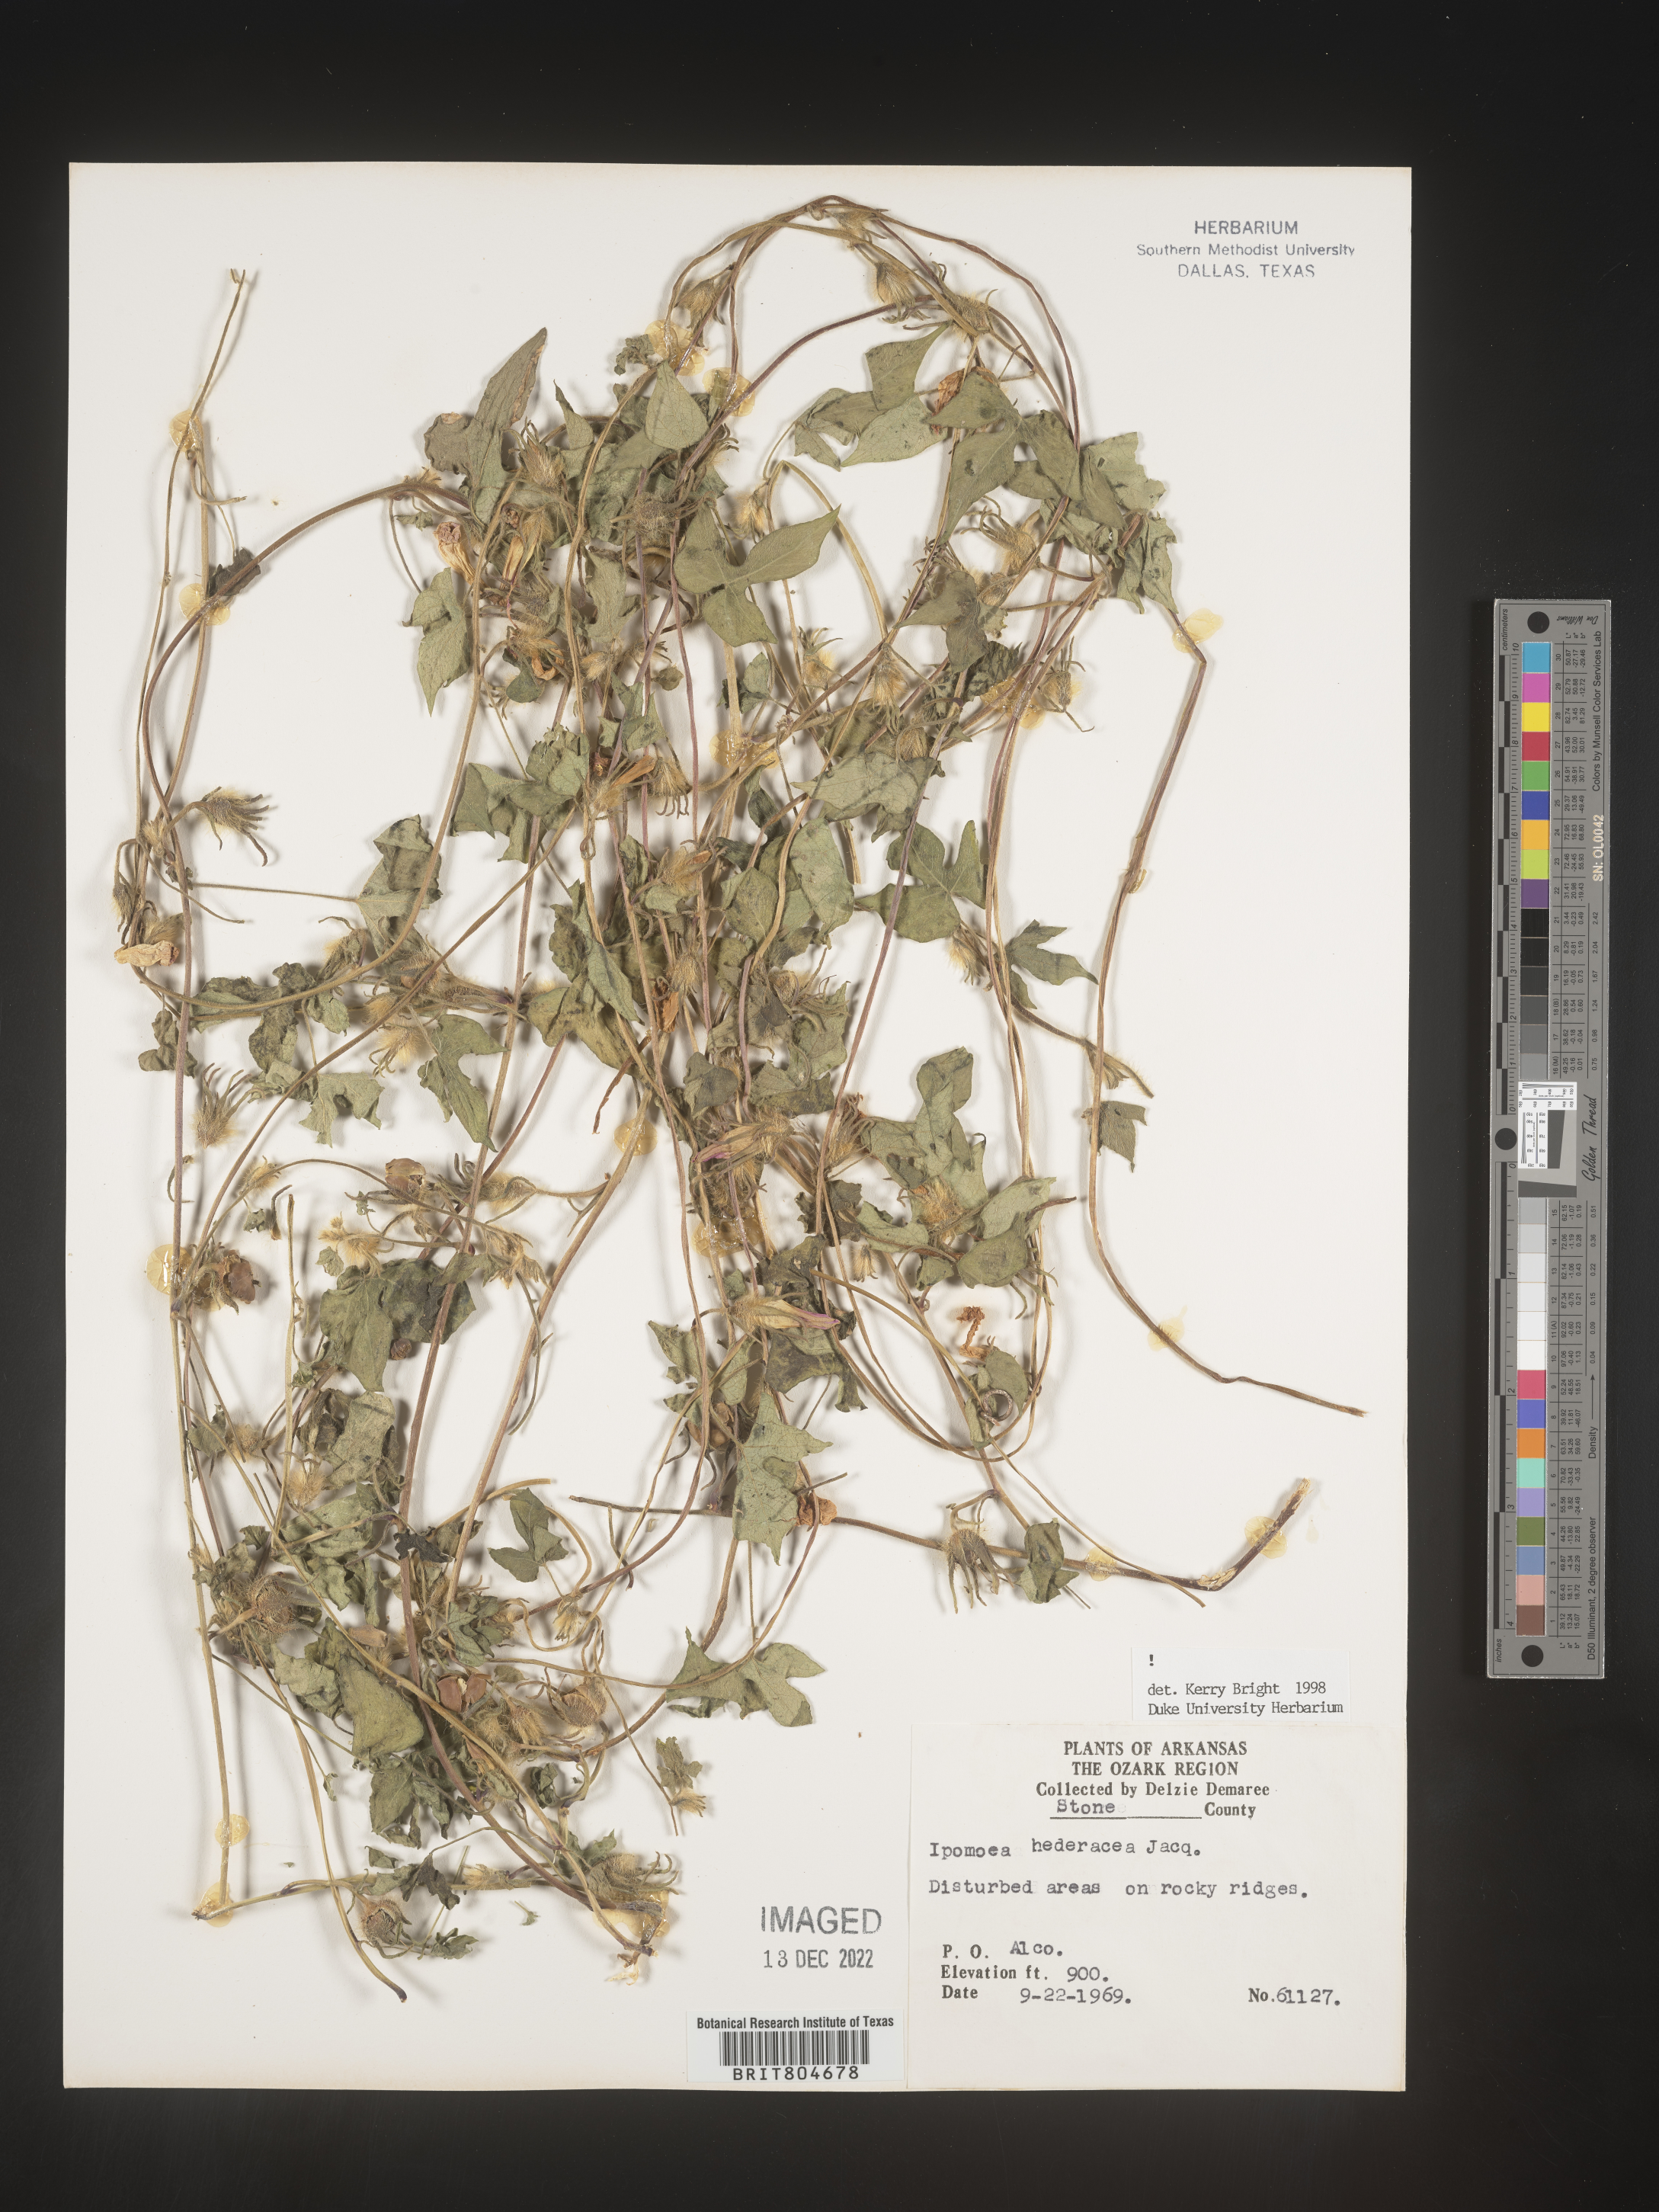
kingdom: Plantae
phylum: Tracheophyta
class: Magnoliopsida
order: Solanales
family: Convolvulaceae
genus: Ipomoea
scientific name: Ipomoea hederacea
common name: Ivy-leaved morning-glory
